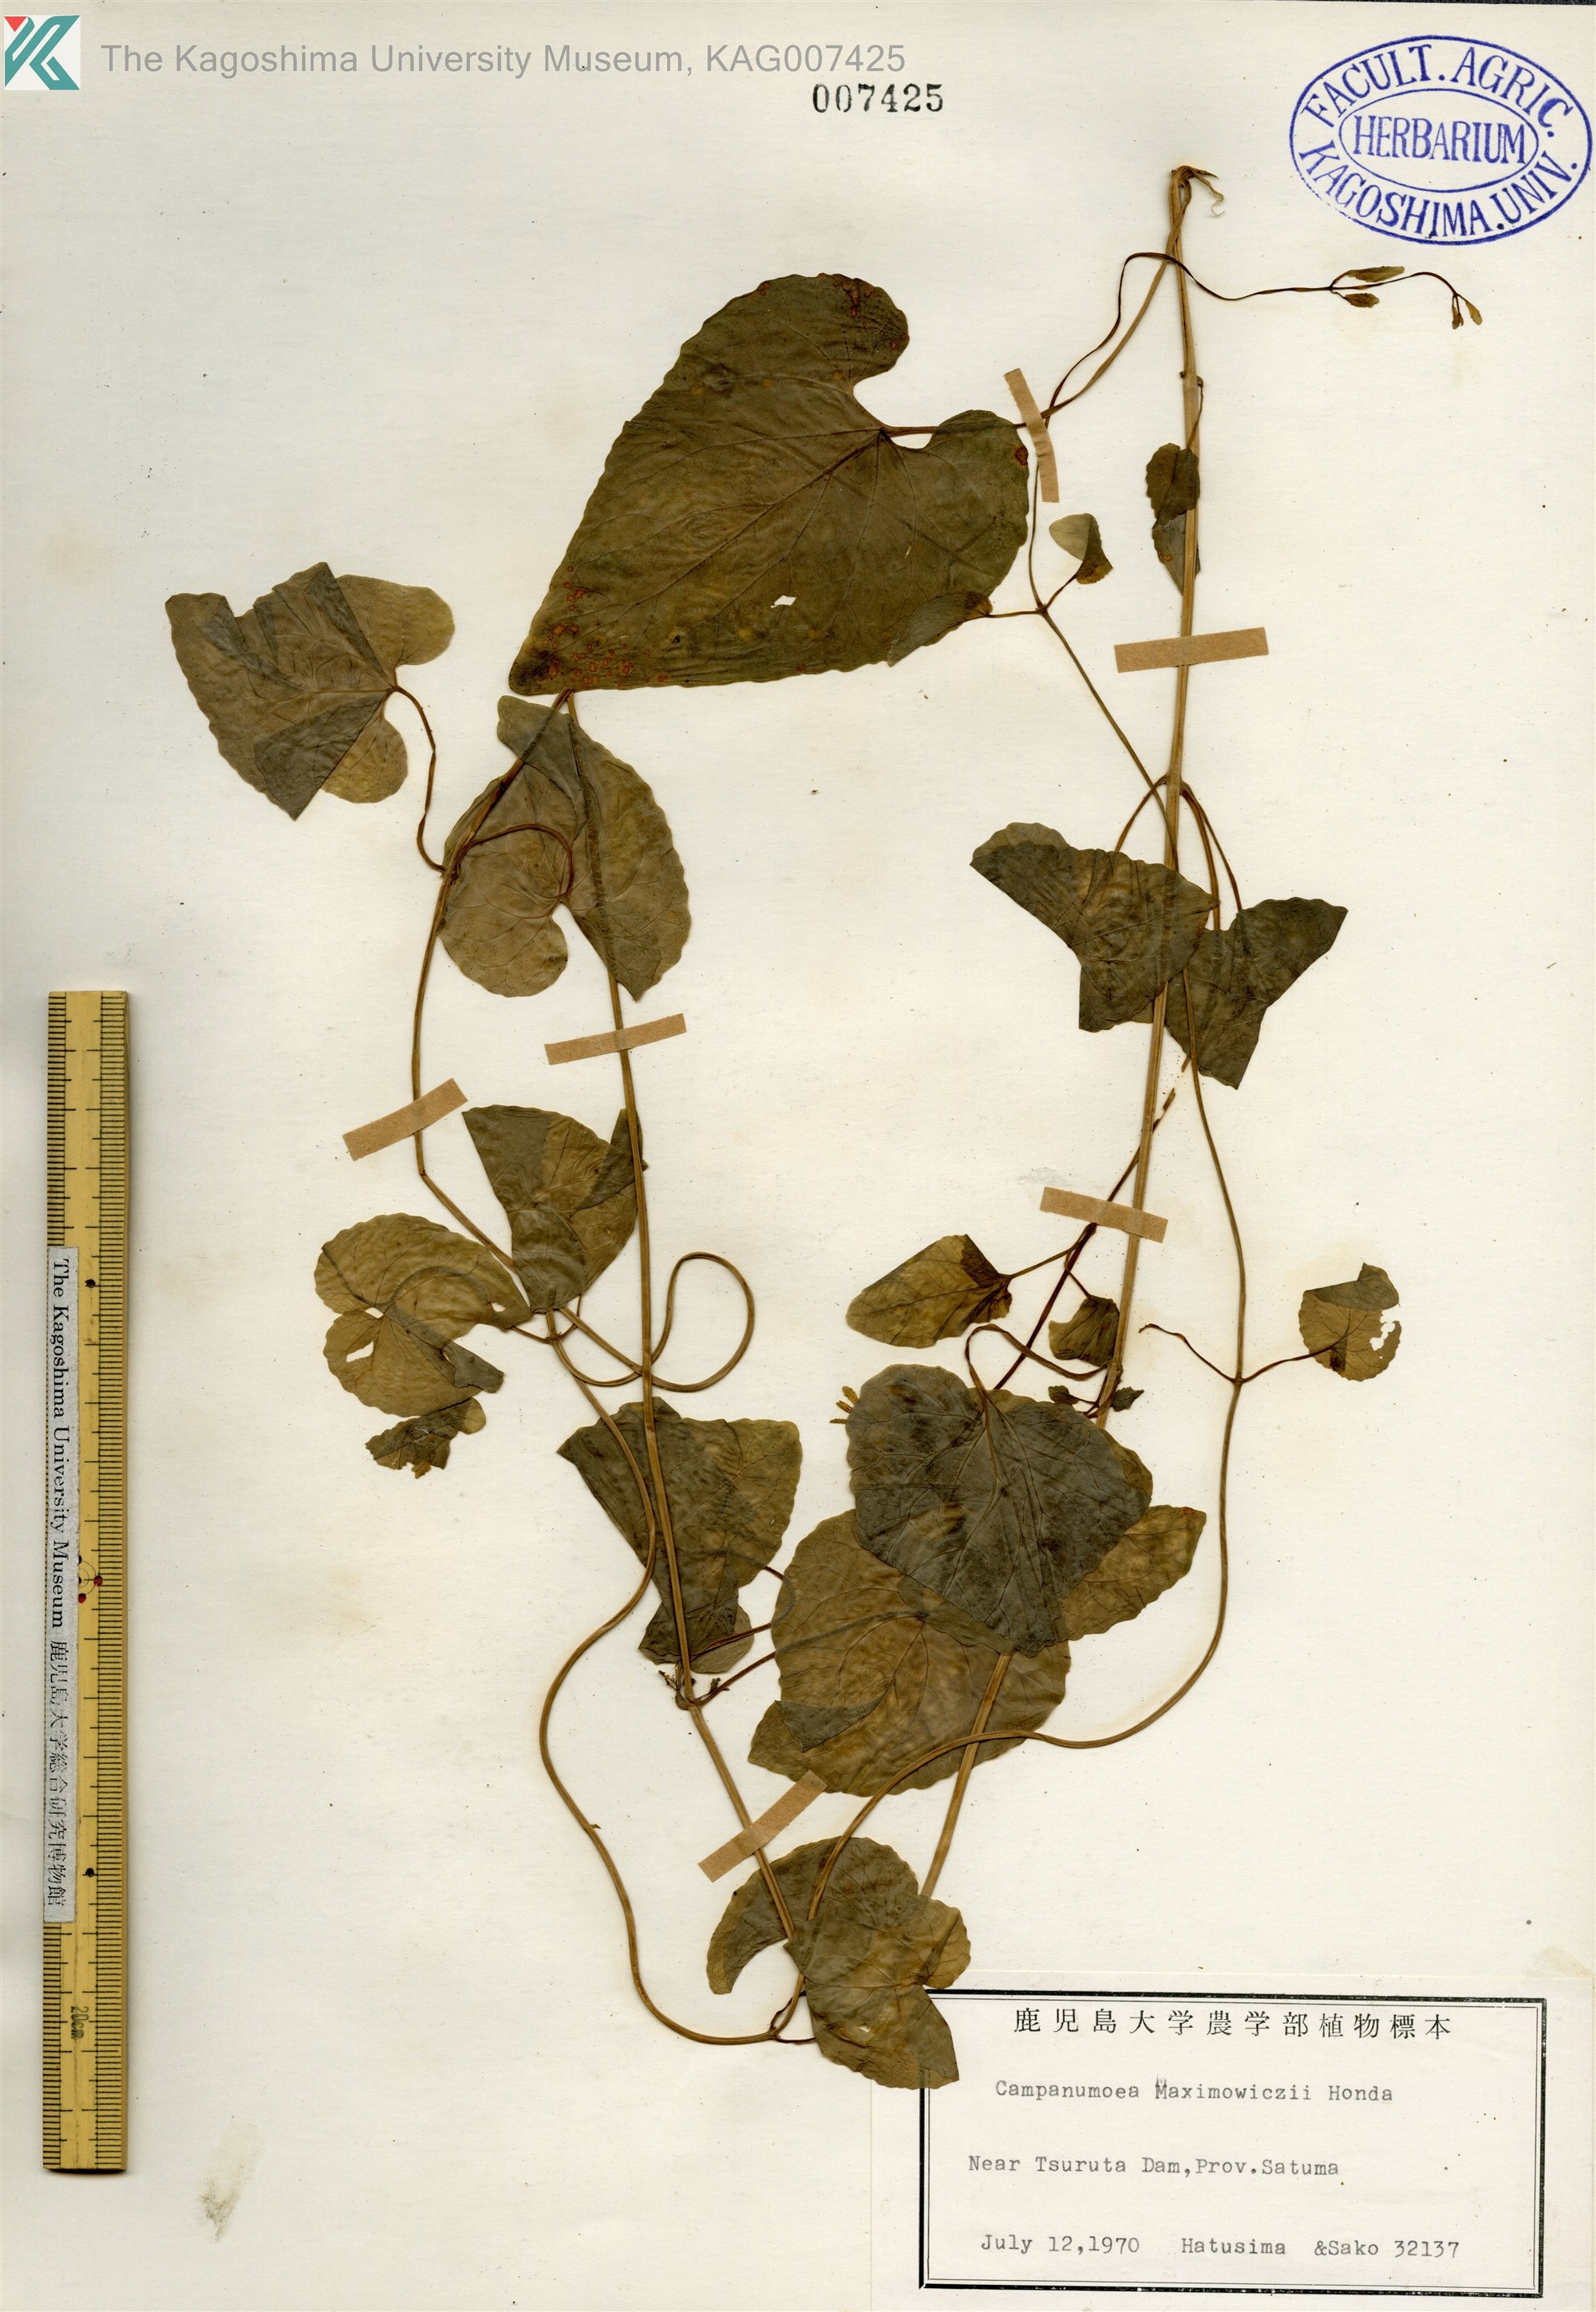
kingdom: Plantae
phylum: Tracheophyta
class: Magnoliopsida
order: Asterales
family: Campanulaceae
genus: Codonopsis
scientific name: Codonopsis javanica
